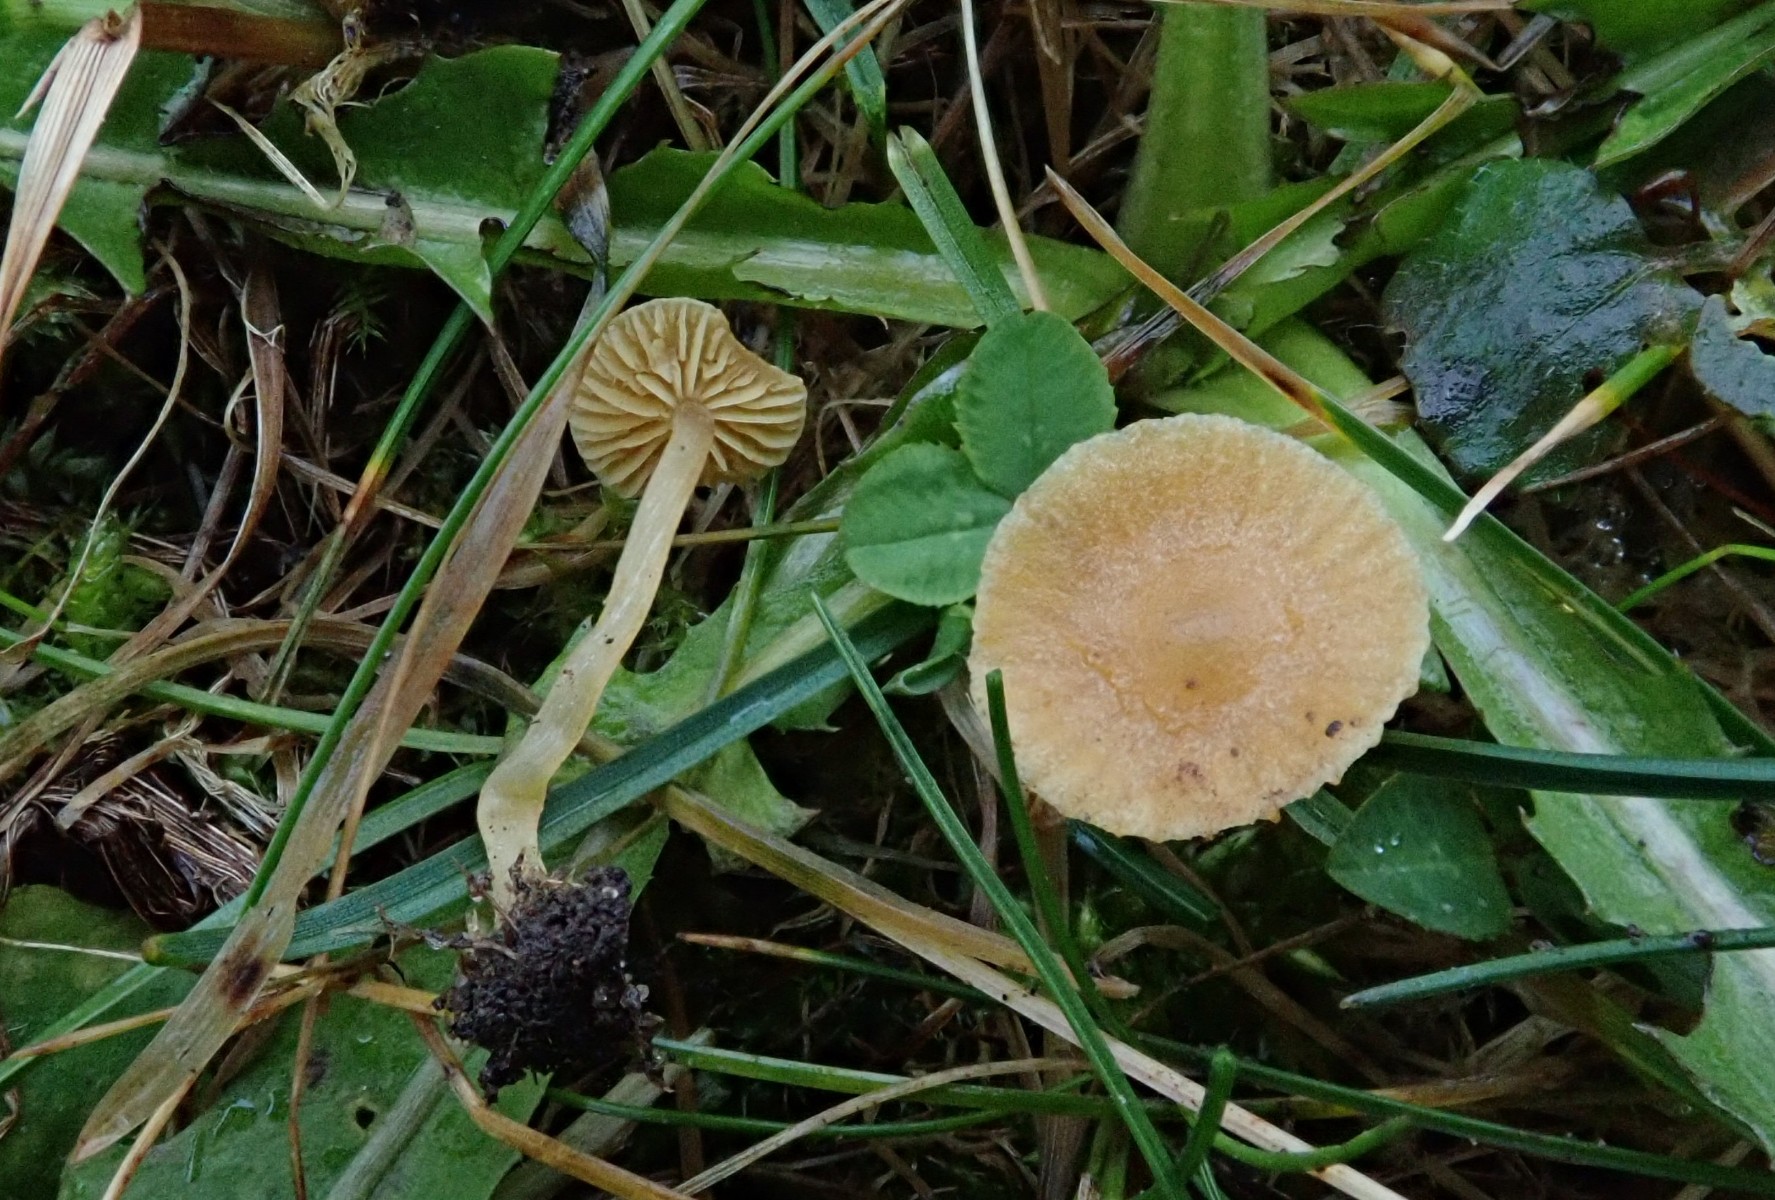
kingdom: Fungi
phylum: Basidiomycota
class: Agaricomycetes
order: Agaricales
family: Tubariaceae
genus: Tubaria
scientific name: Tubaria dispersa
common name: tjørne-fnughat
